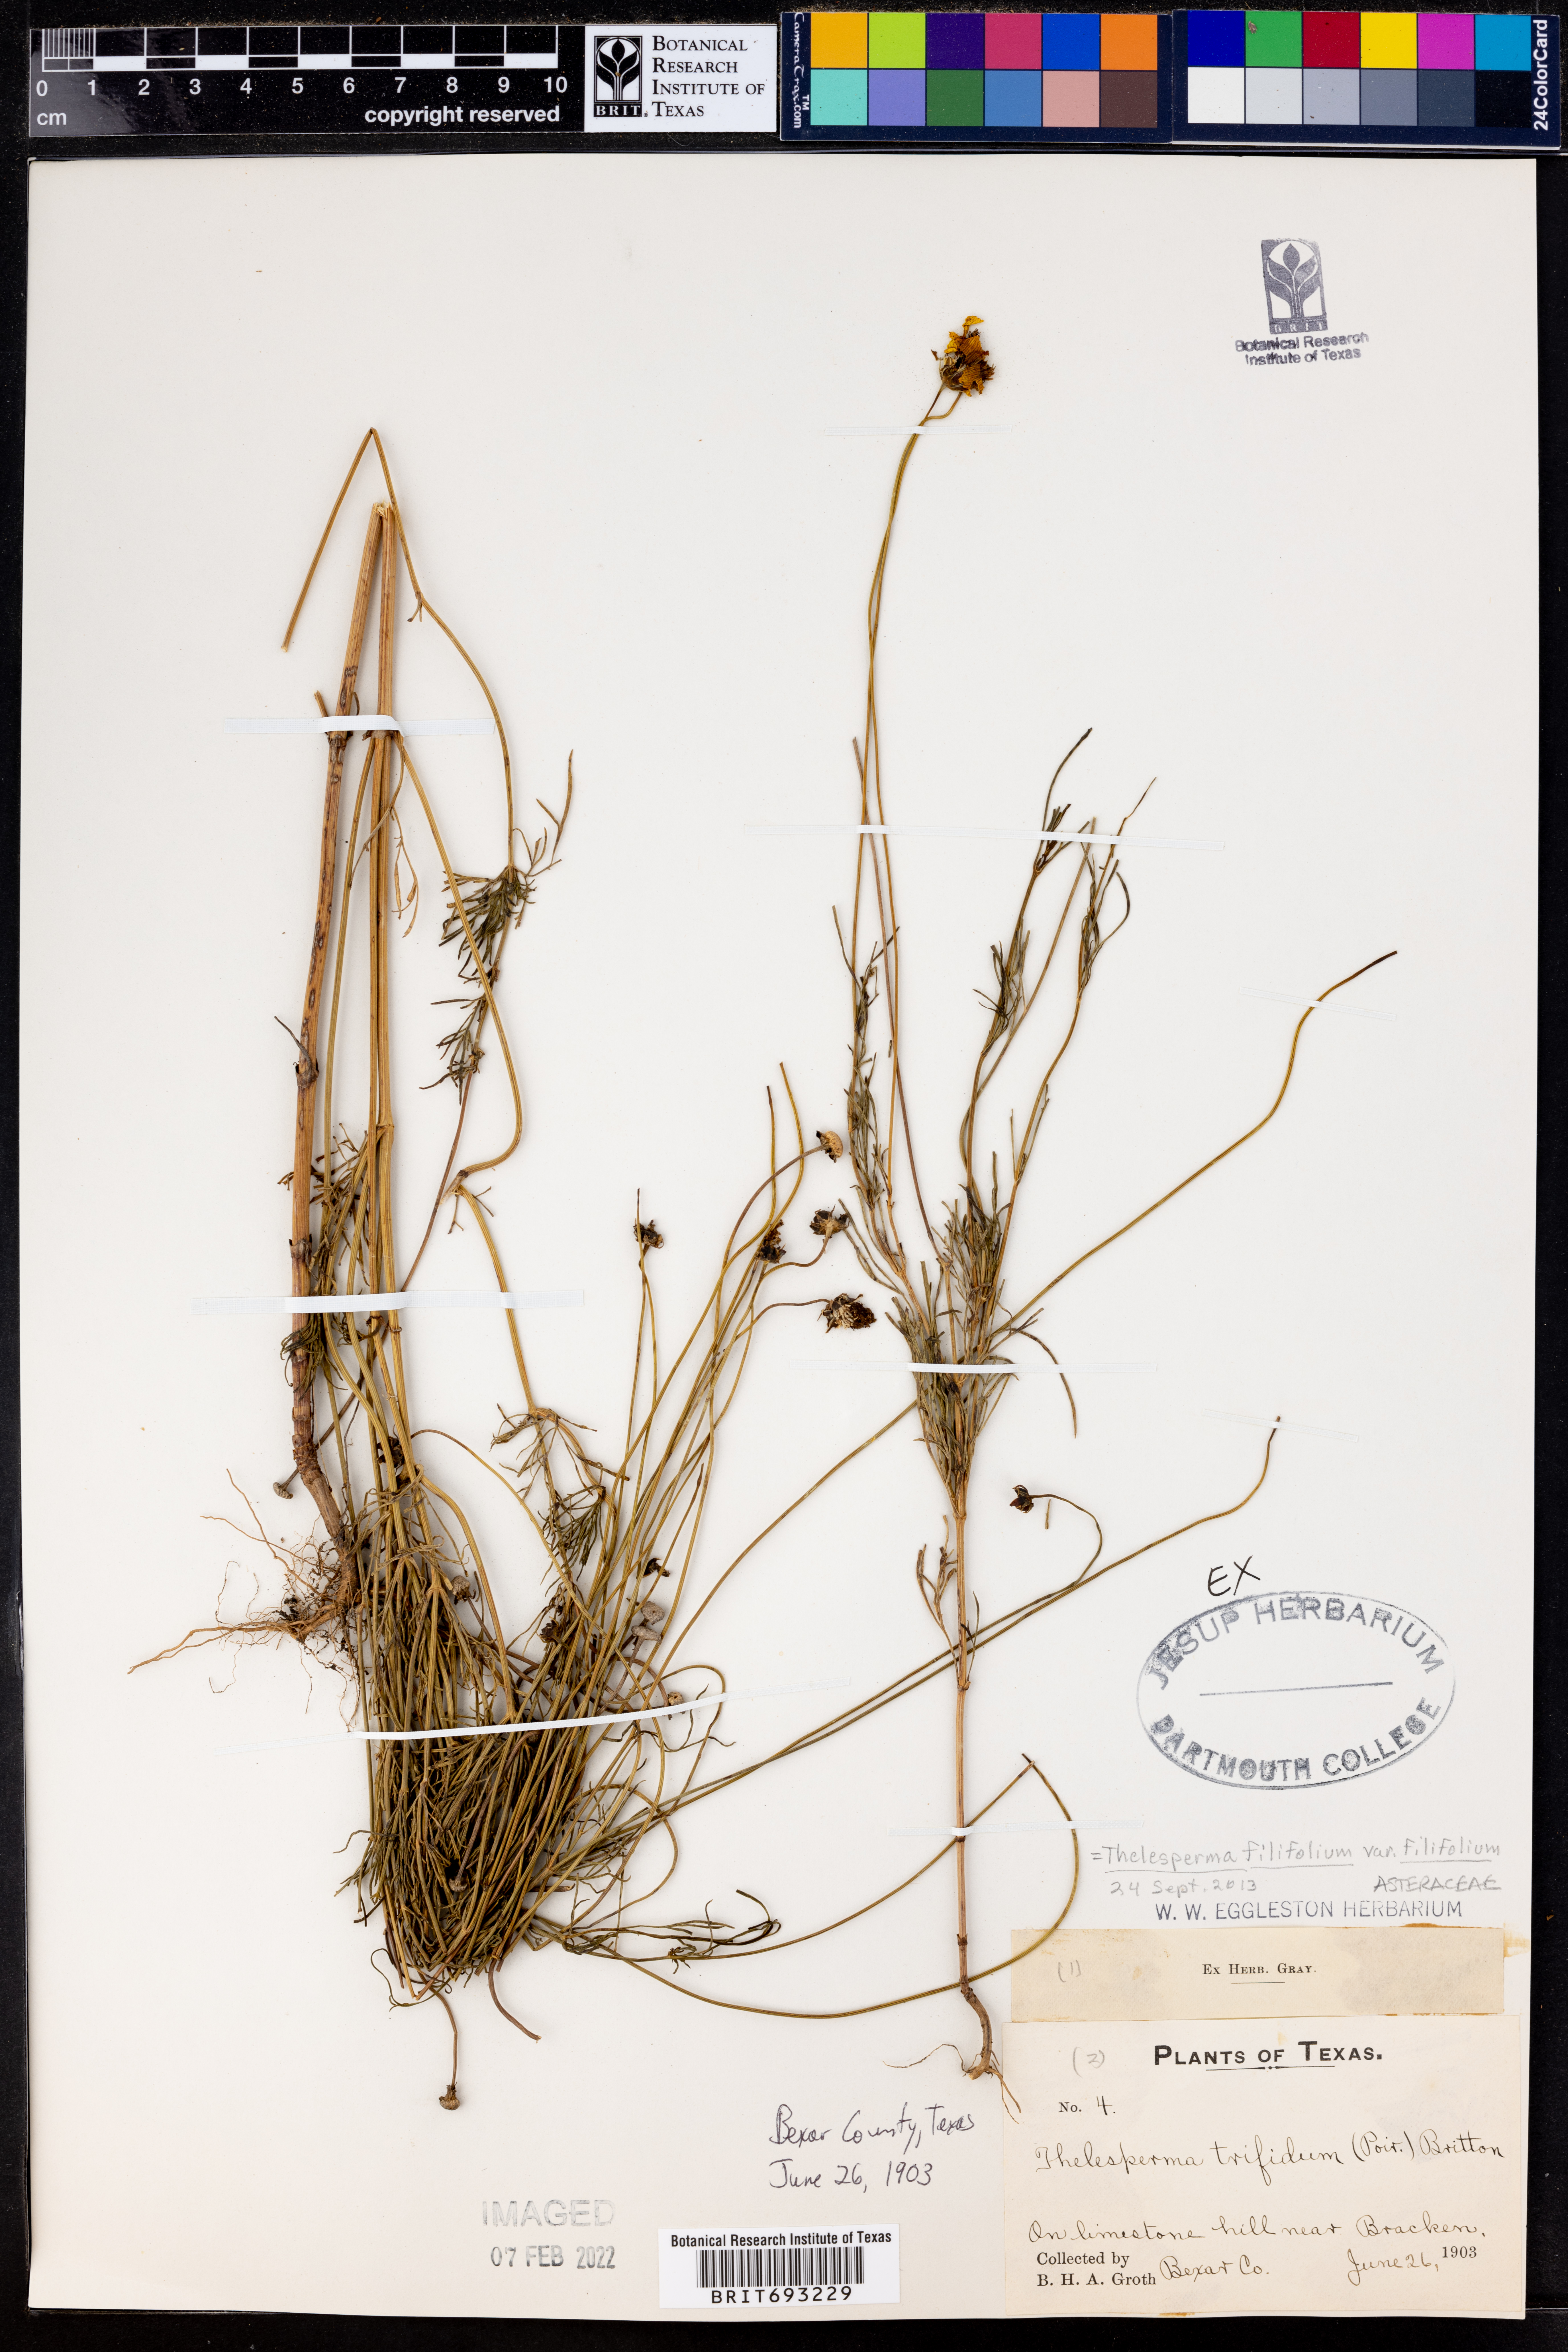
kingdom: Plantae
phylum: Tracheophyta
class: Magnoliopsida
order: Asterales
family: Asteraceae
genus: Thelesperma
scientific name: Thelesperma filifolium
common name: Stiff greenthread
